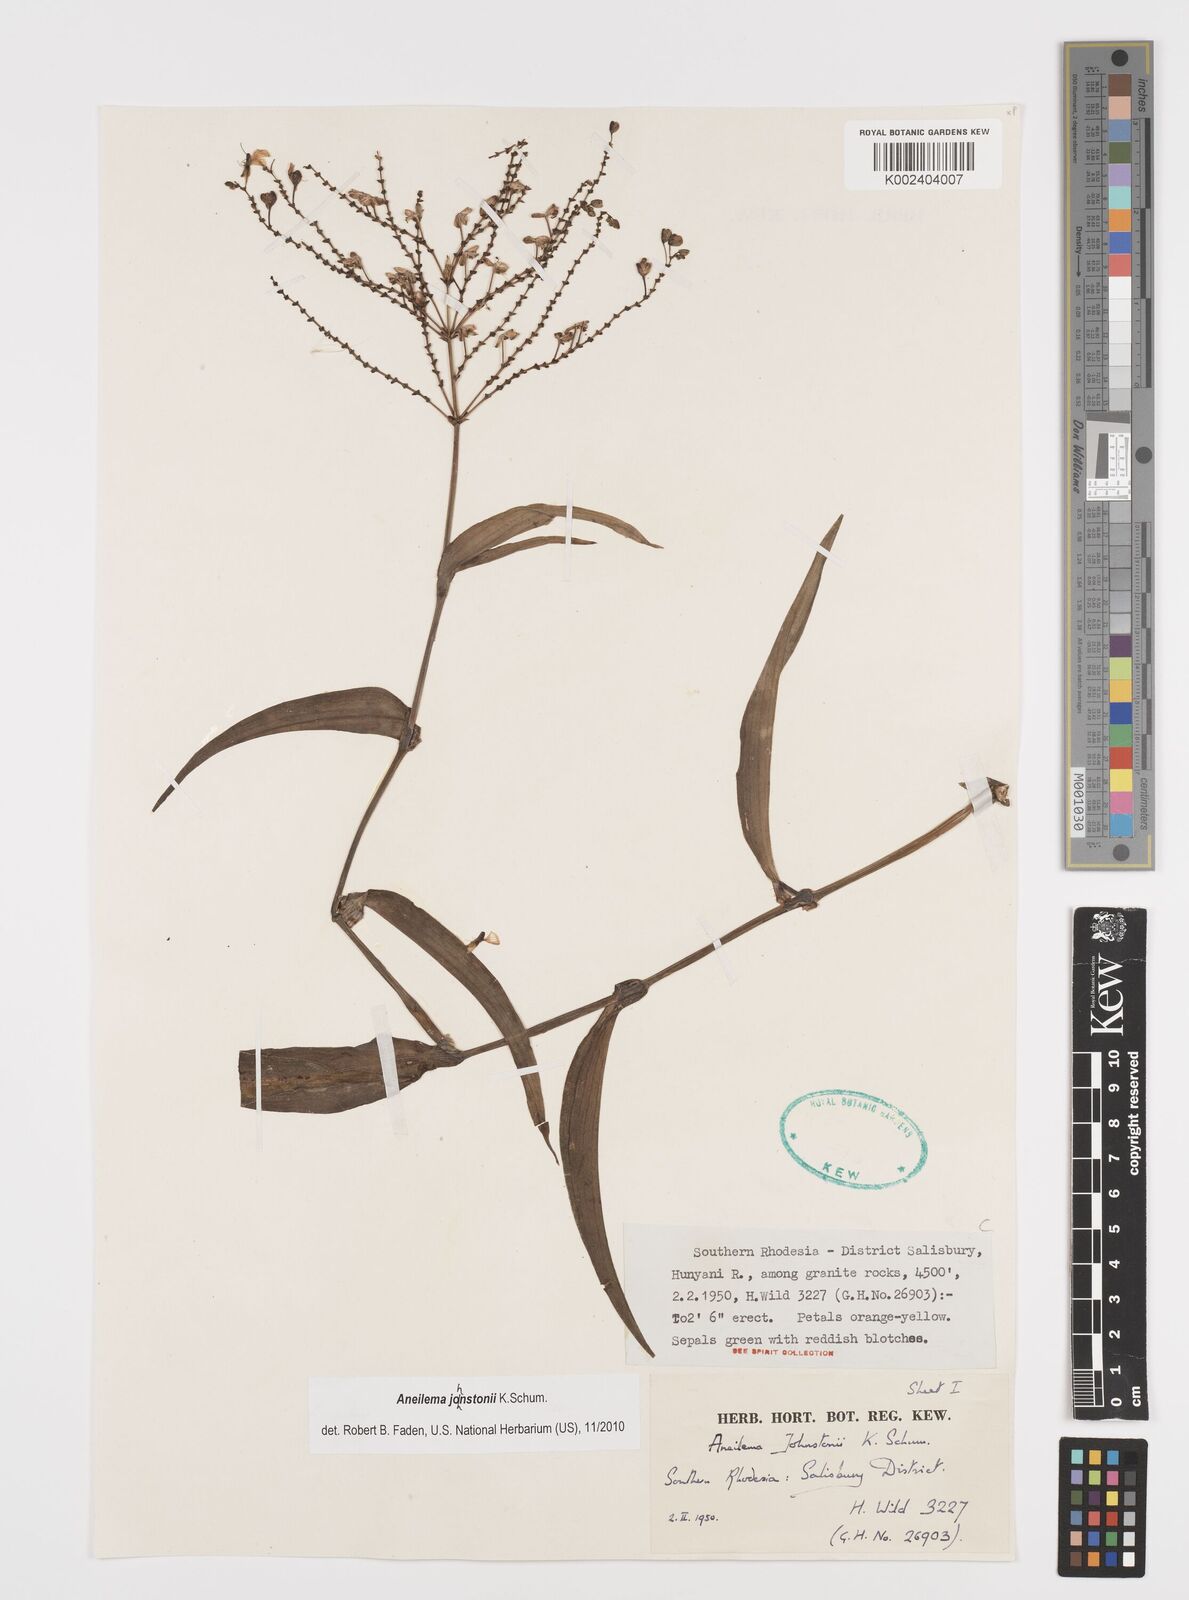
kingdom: Plantae
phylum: Tracheophyta
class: Liliopsida
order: Commelinales
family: Commelinaceae
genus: Aneilema
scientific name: Aneilema johnstonii
